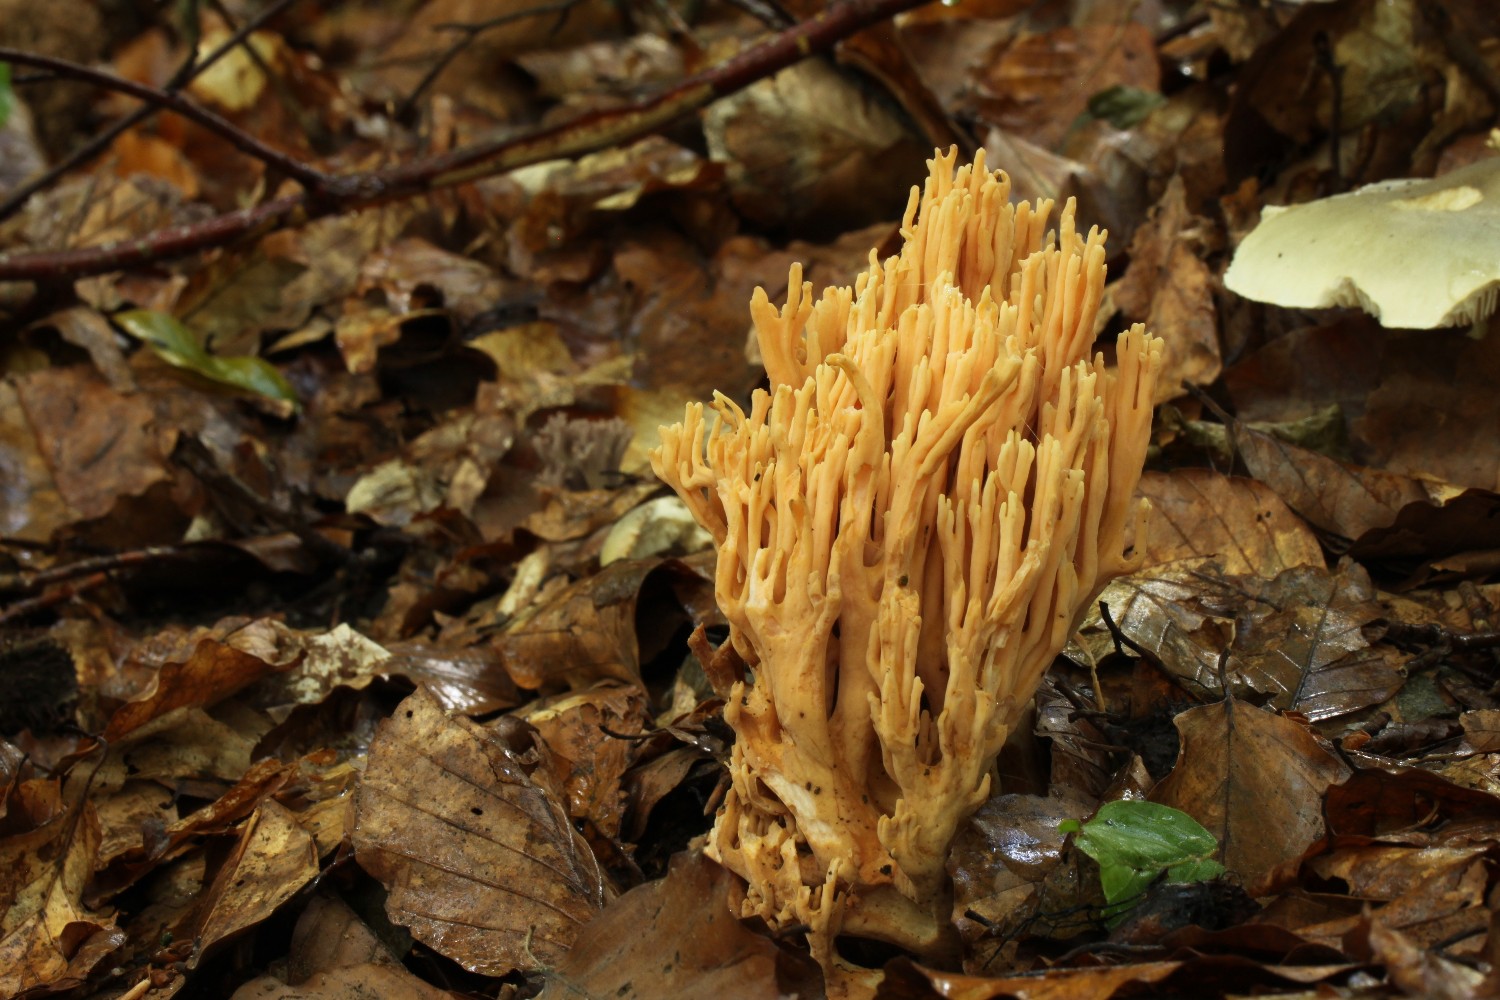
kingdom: Fungi
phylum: Basidiomycota
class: Agaricomycetes
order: Gomphales
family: Gomphaceae
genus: Ramaria
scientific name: Ramaria formosa
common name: smuk koralsvamp
